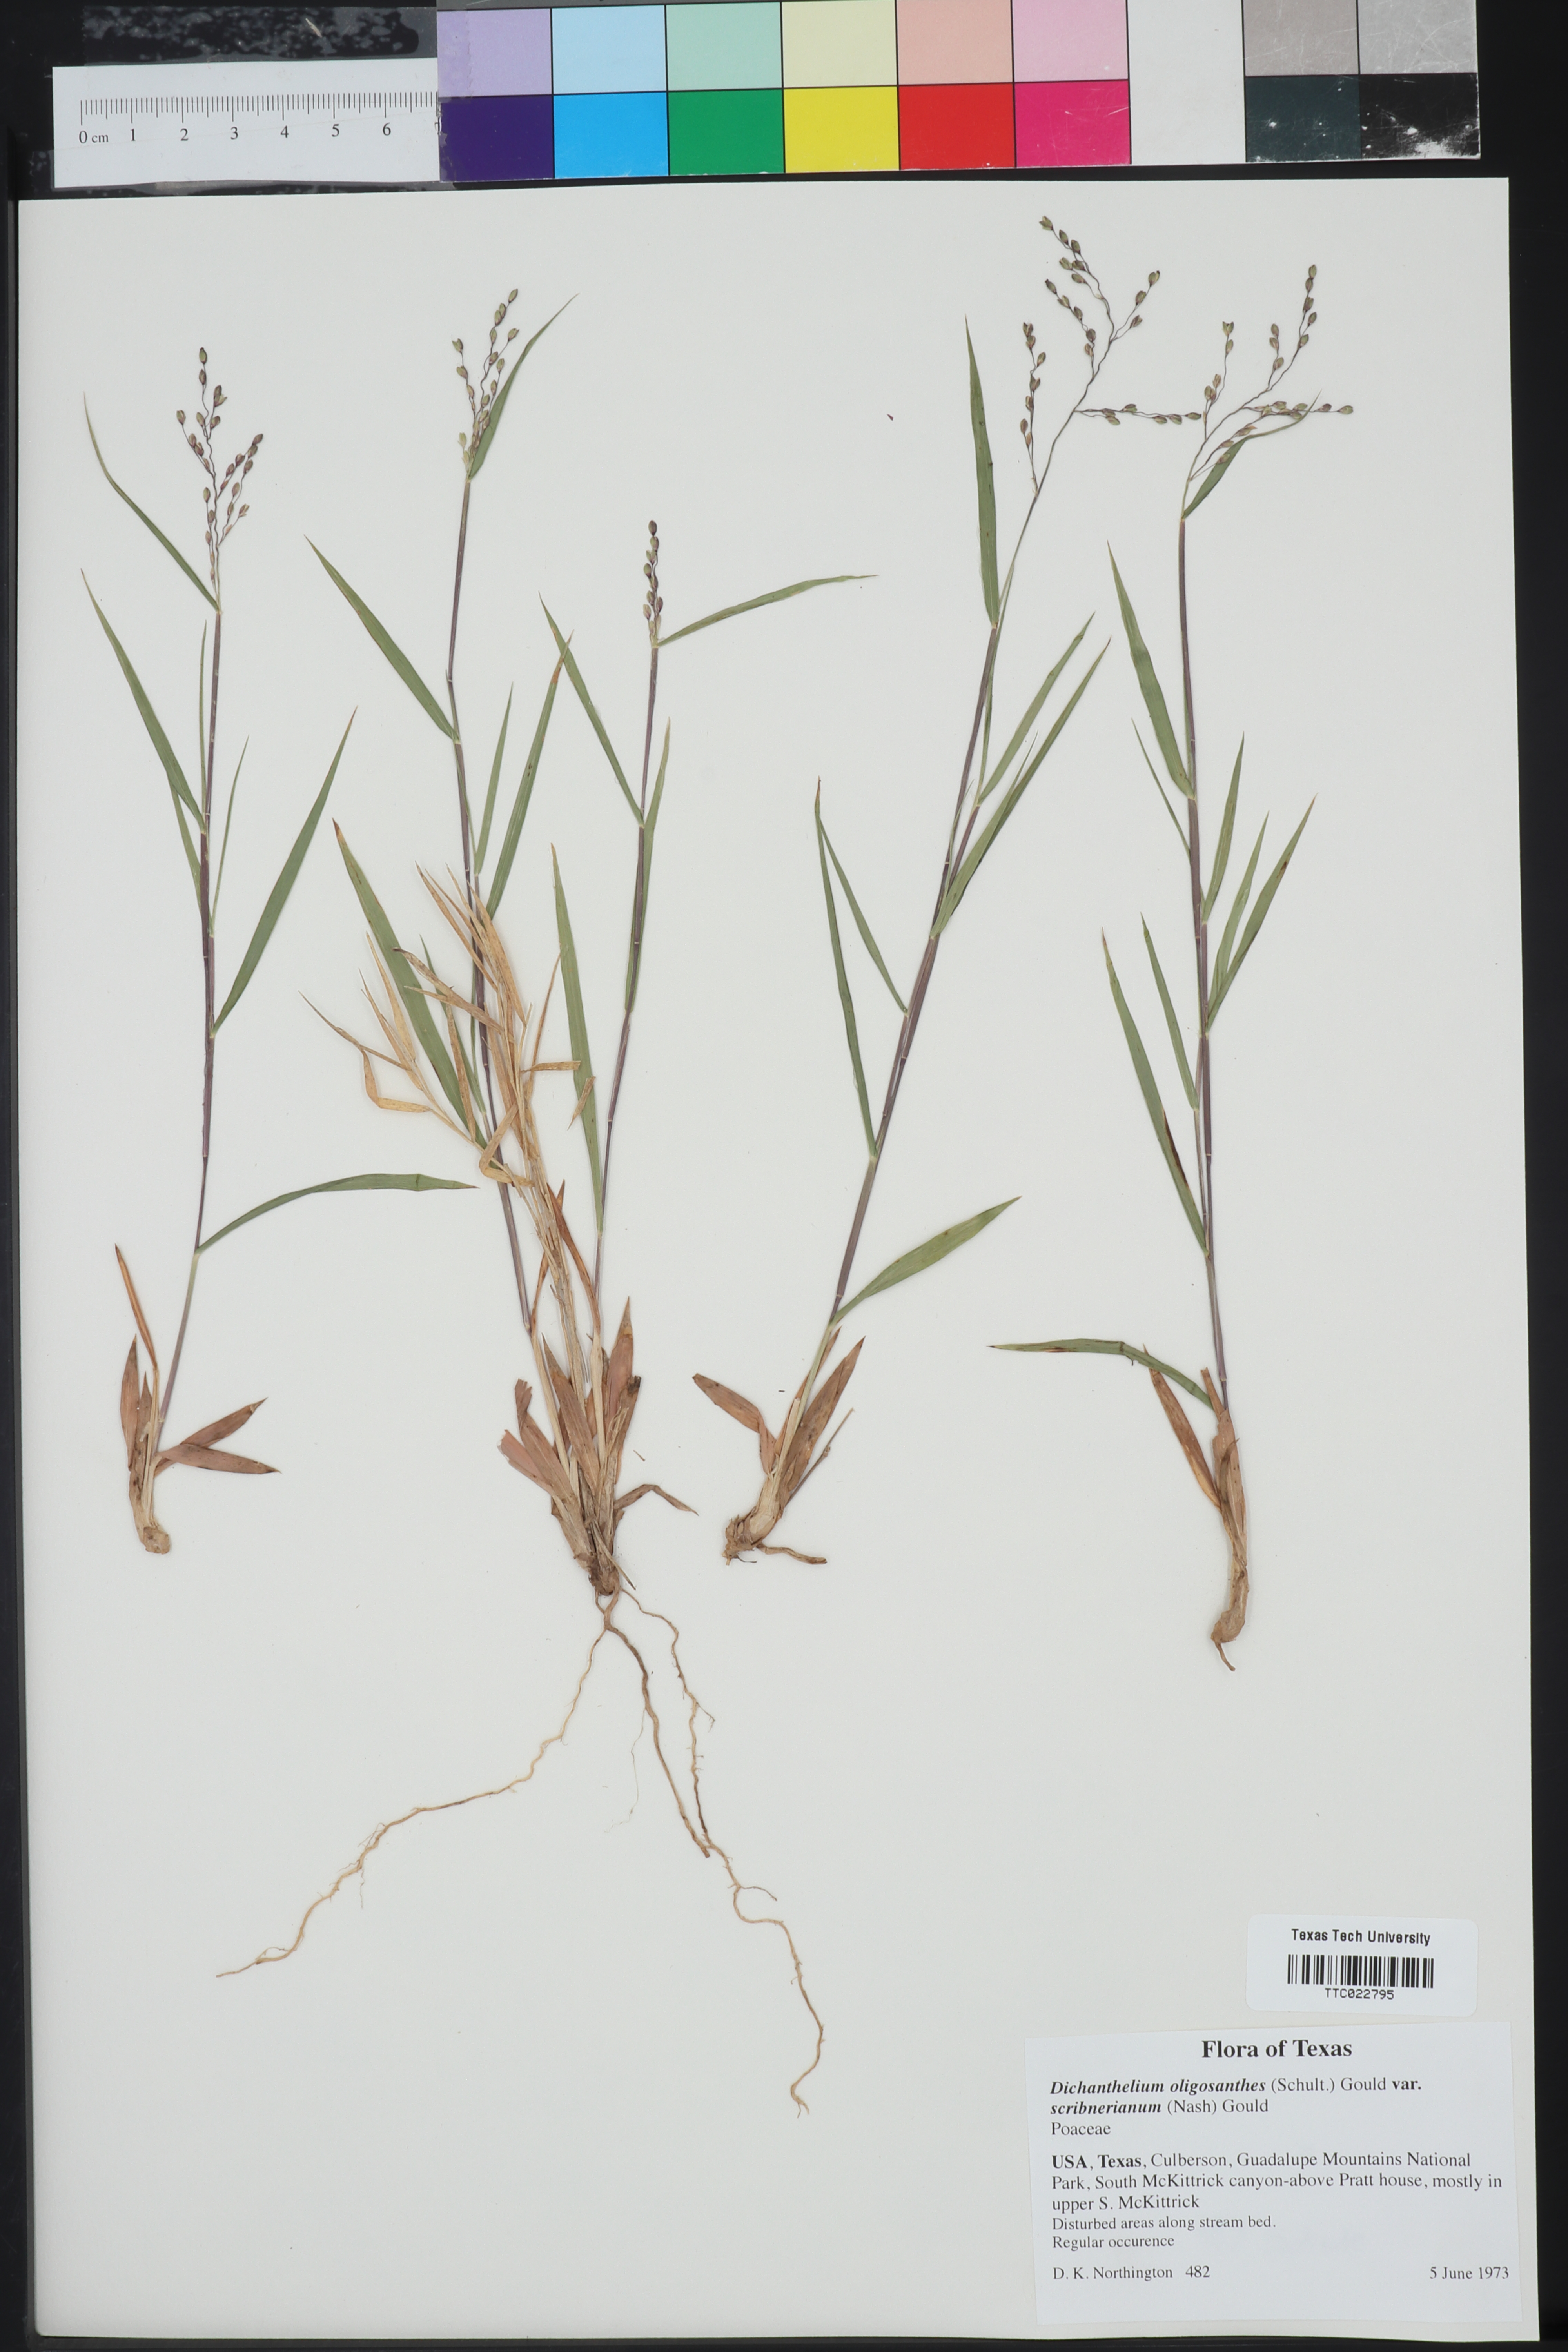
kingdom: Plantae
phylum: Tracheophyta
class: Liliopsida
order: Poales
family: Poaceae
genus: Dichanthelium
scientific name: Dichanthelium scribnerianum
